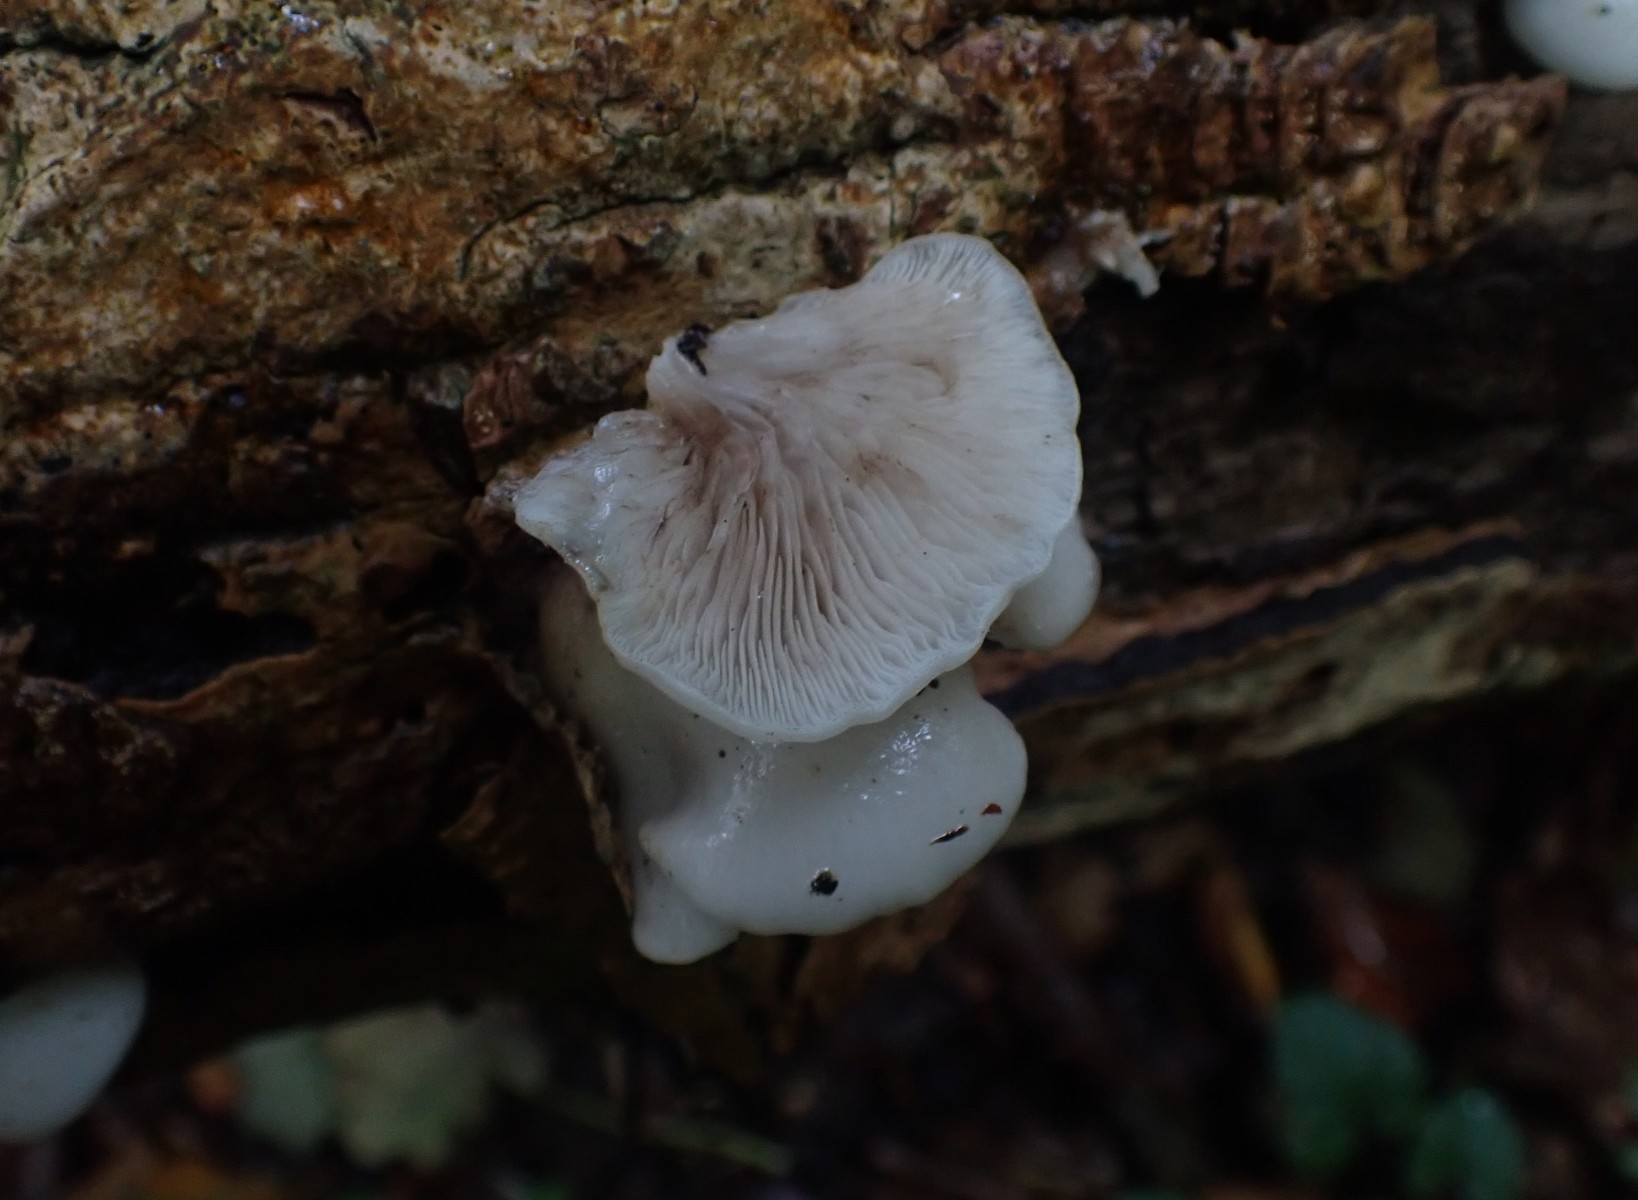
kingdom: Fungi
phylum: Basidiomycota
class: Agaricomycetes
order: Agaricales
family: Crepidotaceae
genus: Crepidotus
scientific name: Crepidotus mollis
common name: blød muslingesvamp
